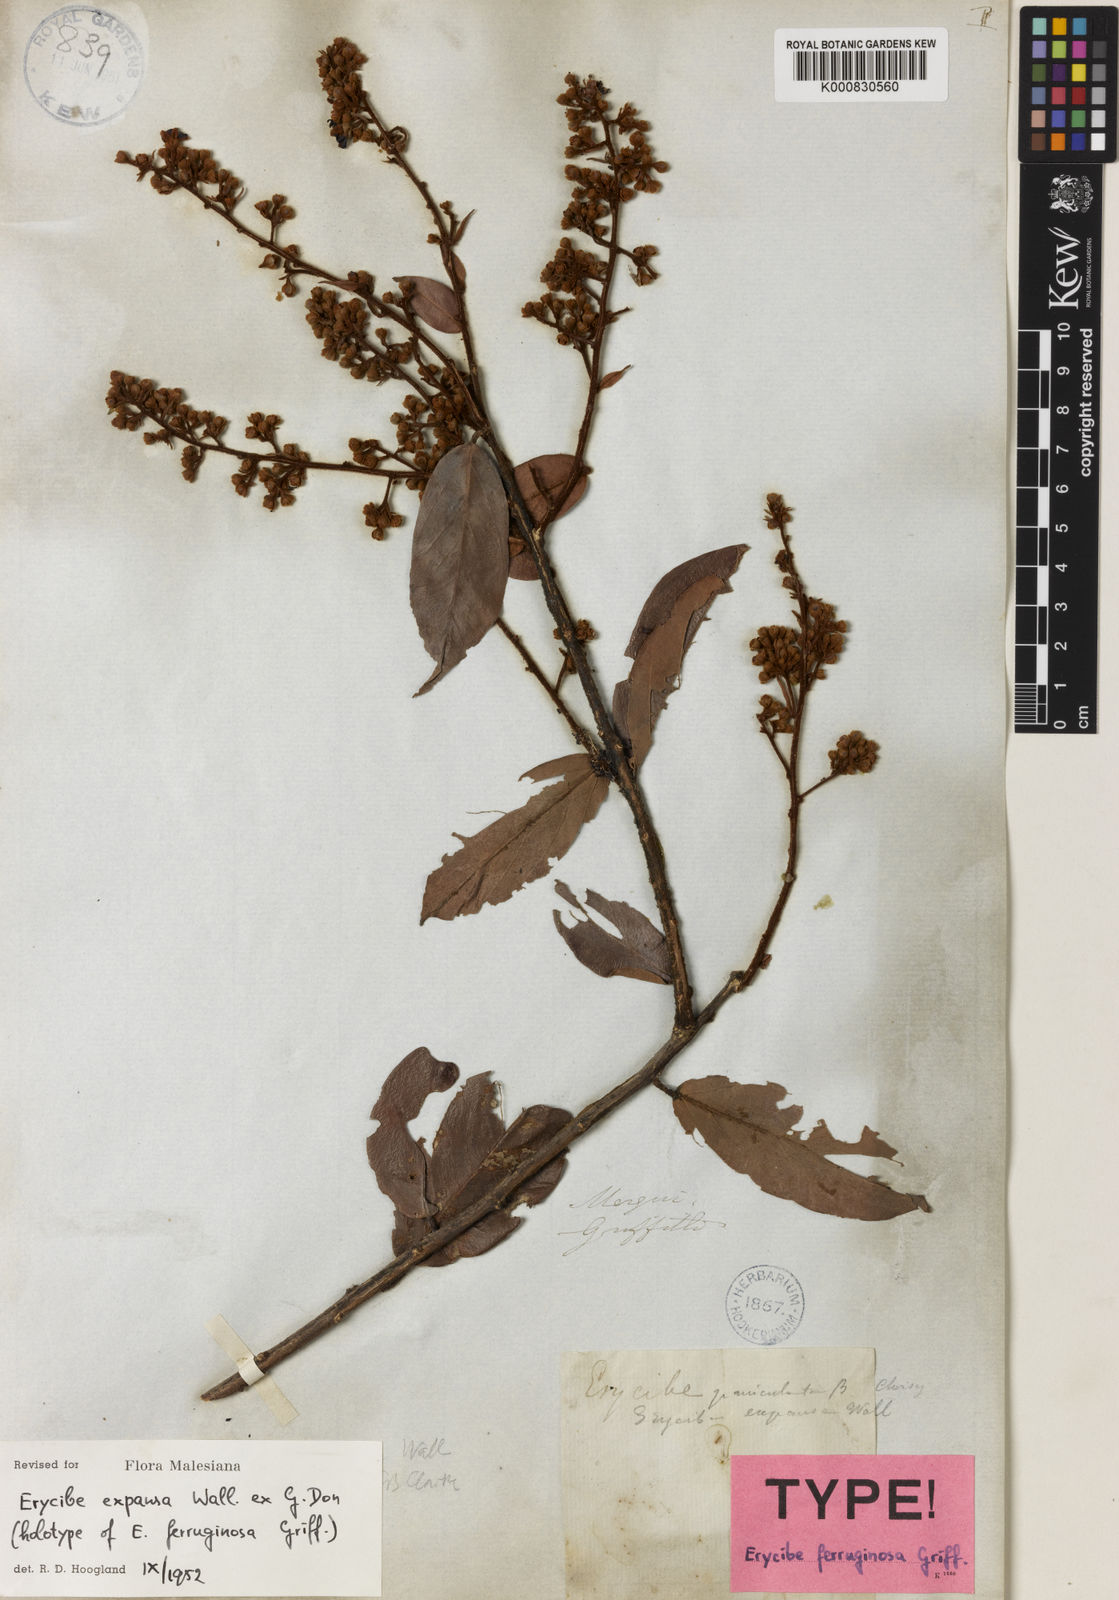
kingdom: Plantae
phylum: Tracheophyta
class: Magnoliopsida
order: Solanales
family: Convolvulaceae
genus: Erycibe
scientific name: Erycibe expansa
